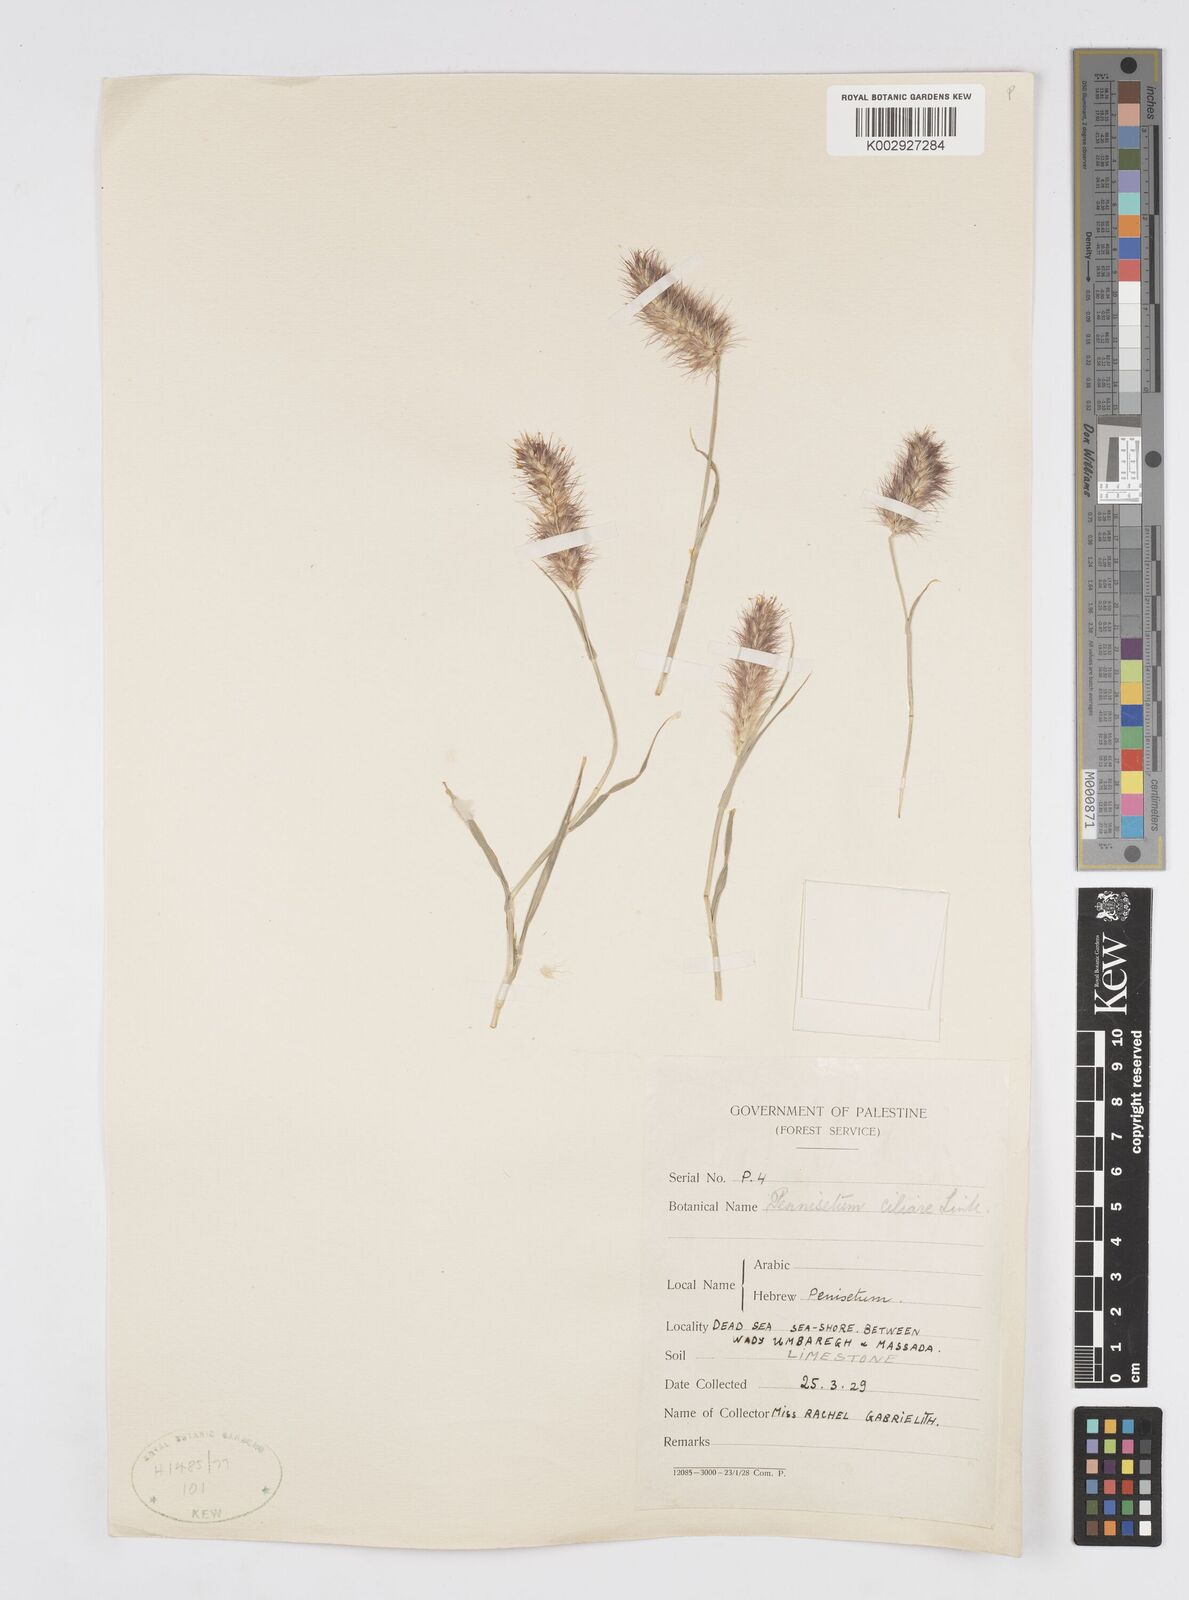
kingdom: Plantae
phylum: Tracheophyta
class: Liliopsida
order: Poales
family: Poaceae
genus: Cenchrus
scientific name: Cenchrus ciliaris
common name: Buffelgrass
